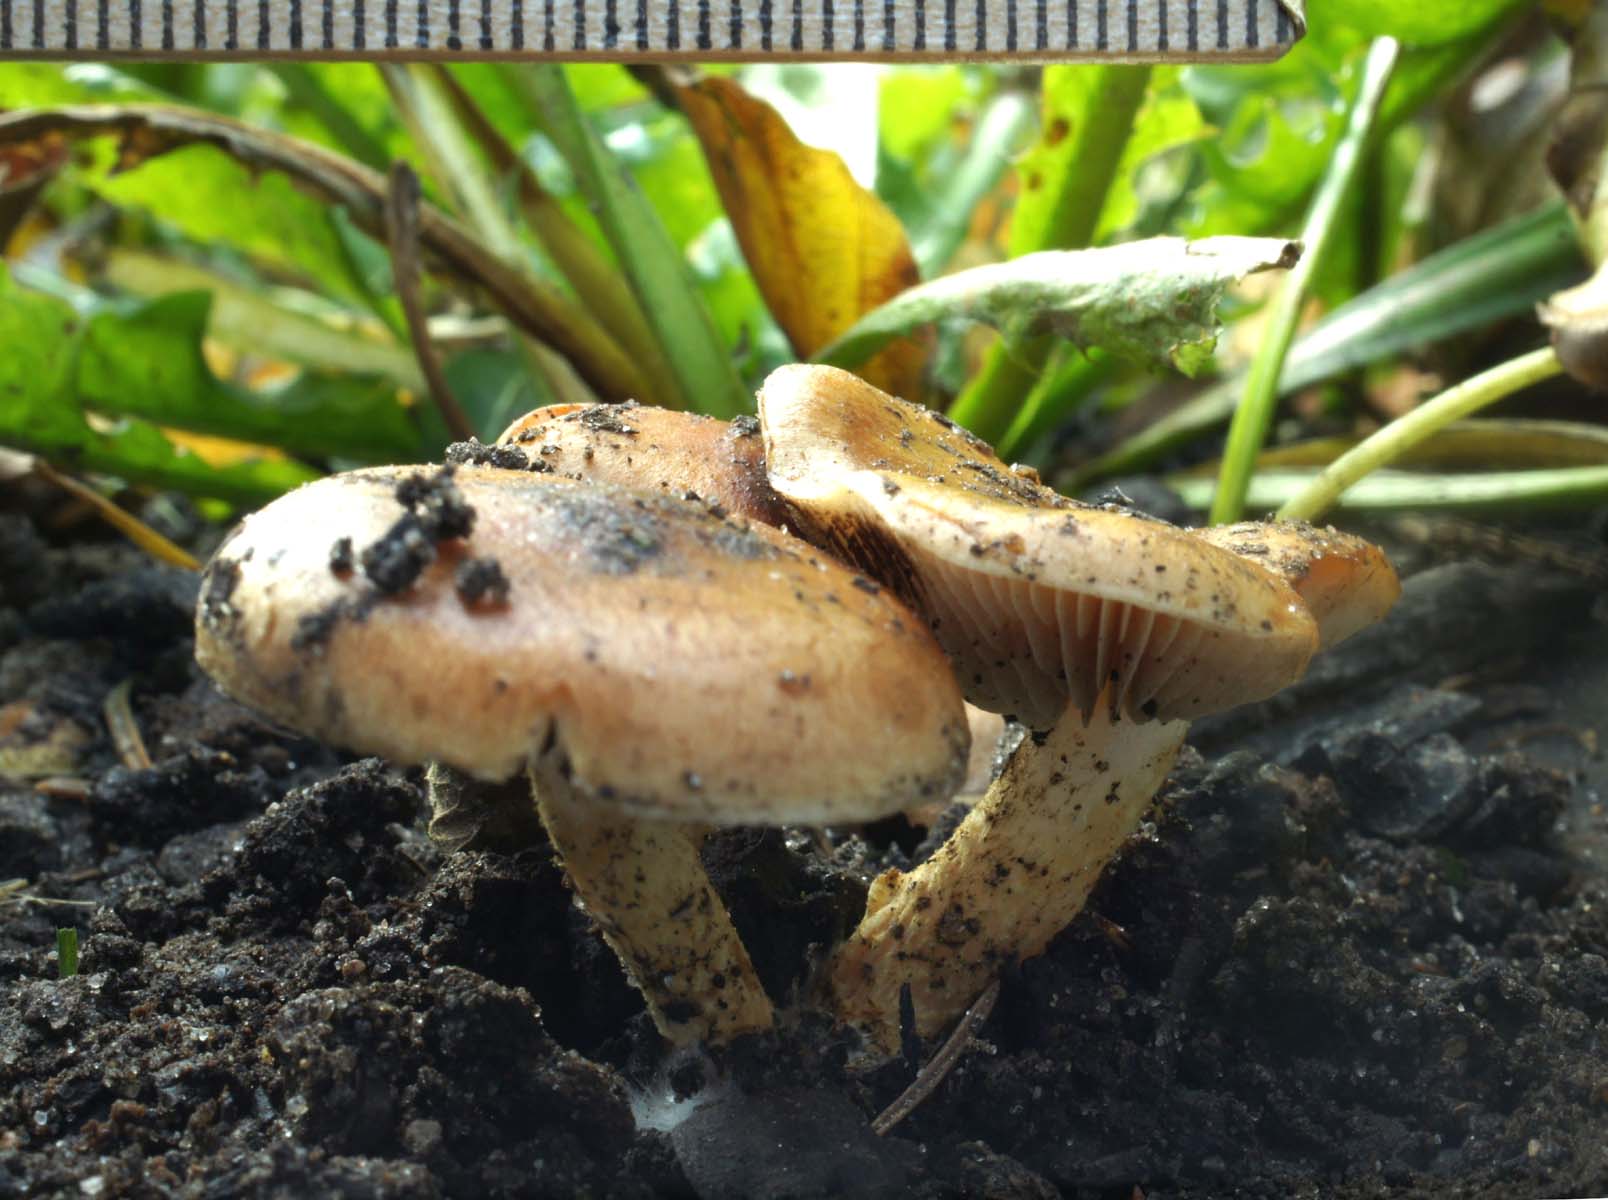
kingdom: Fungi
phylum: Basidiomycota
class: Agaricomycetes
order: Agaricales
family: Strophariaceae
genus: Pholiota
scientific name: Pholiota carbonaria
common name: kul-skælhat
